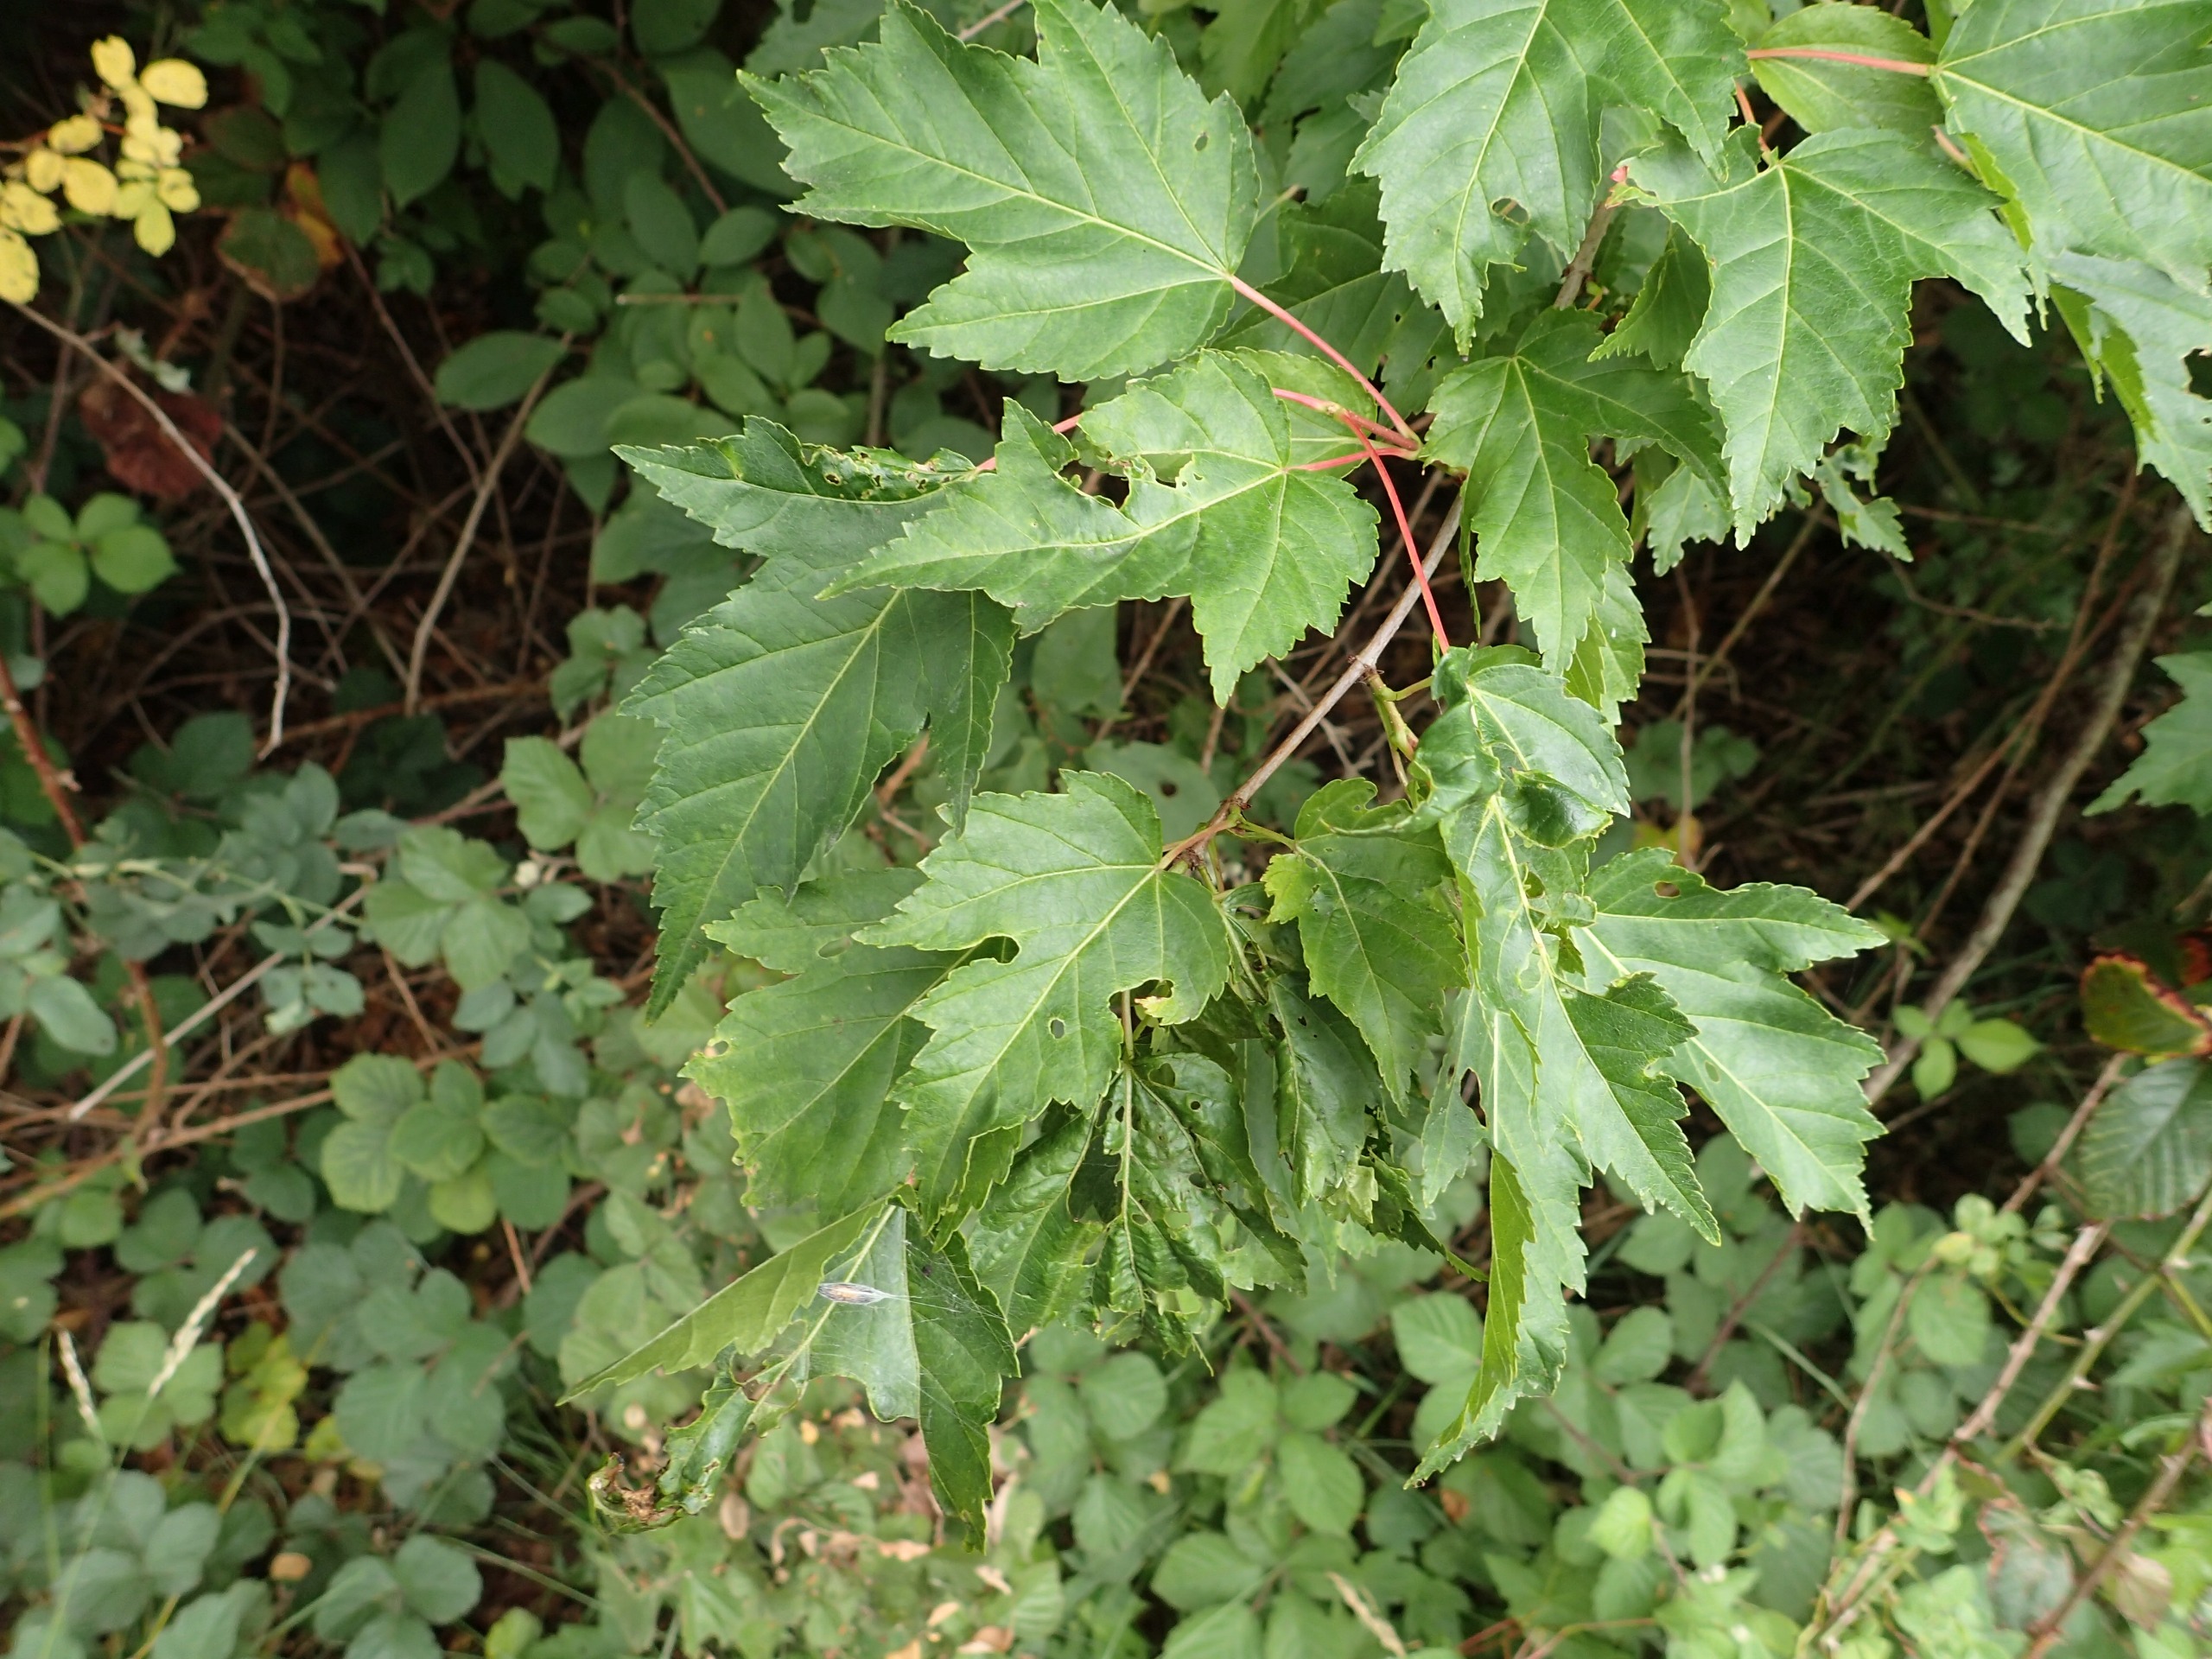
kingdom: Plantae
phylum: Tracheophyta
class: Magnoliopsida
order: Sapindales
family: Sapindaceae
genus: Acer
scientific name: Acer tataricum
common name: Ild-løn
